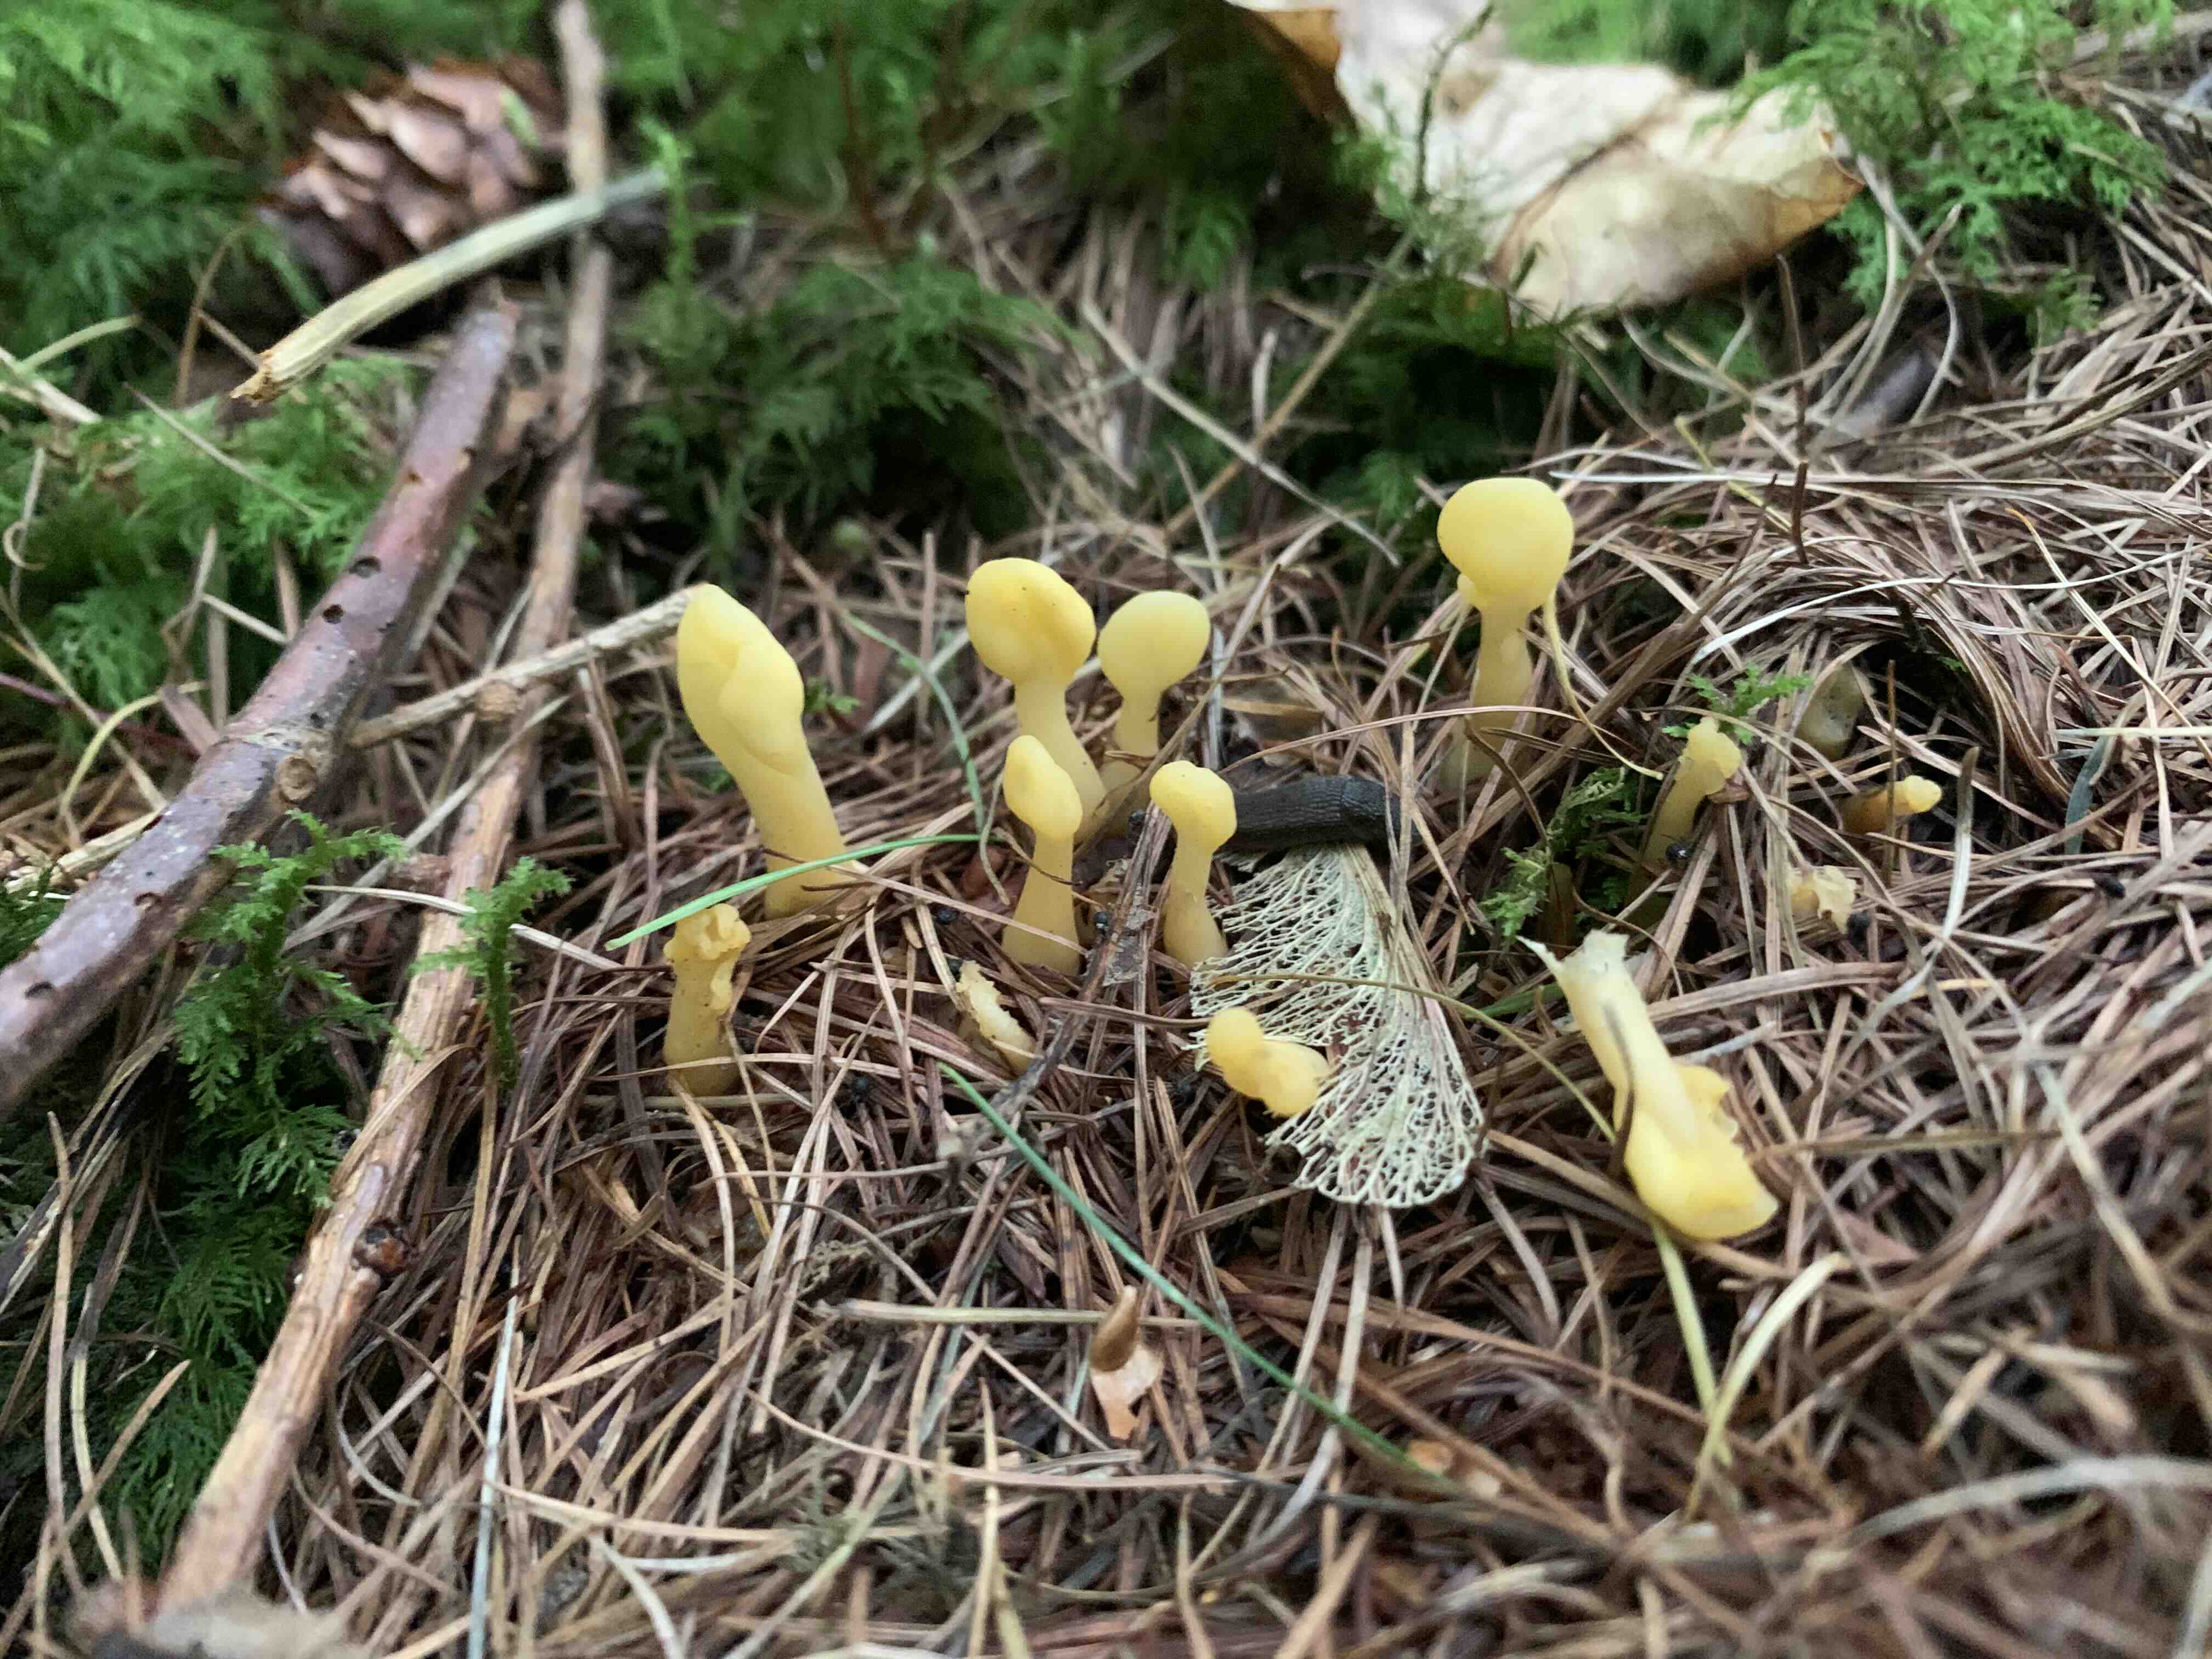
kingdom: Fungi
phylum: Ascomycota
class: Leotiomycetes
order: Rhytismatales
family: Cudoniaceae
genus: Spathularia
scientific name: Spathularia flavida
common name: gul spatelsvamp
